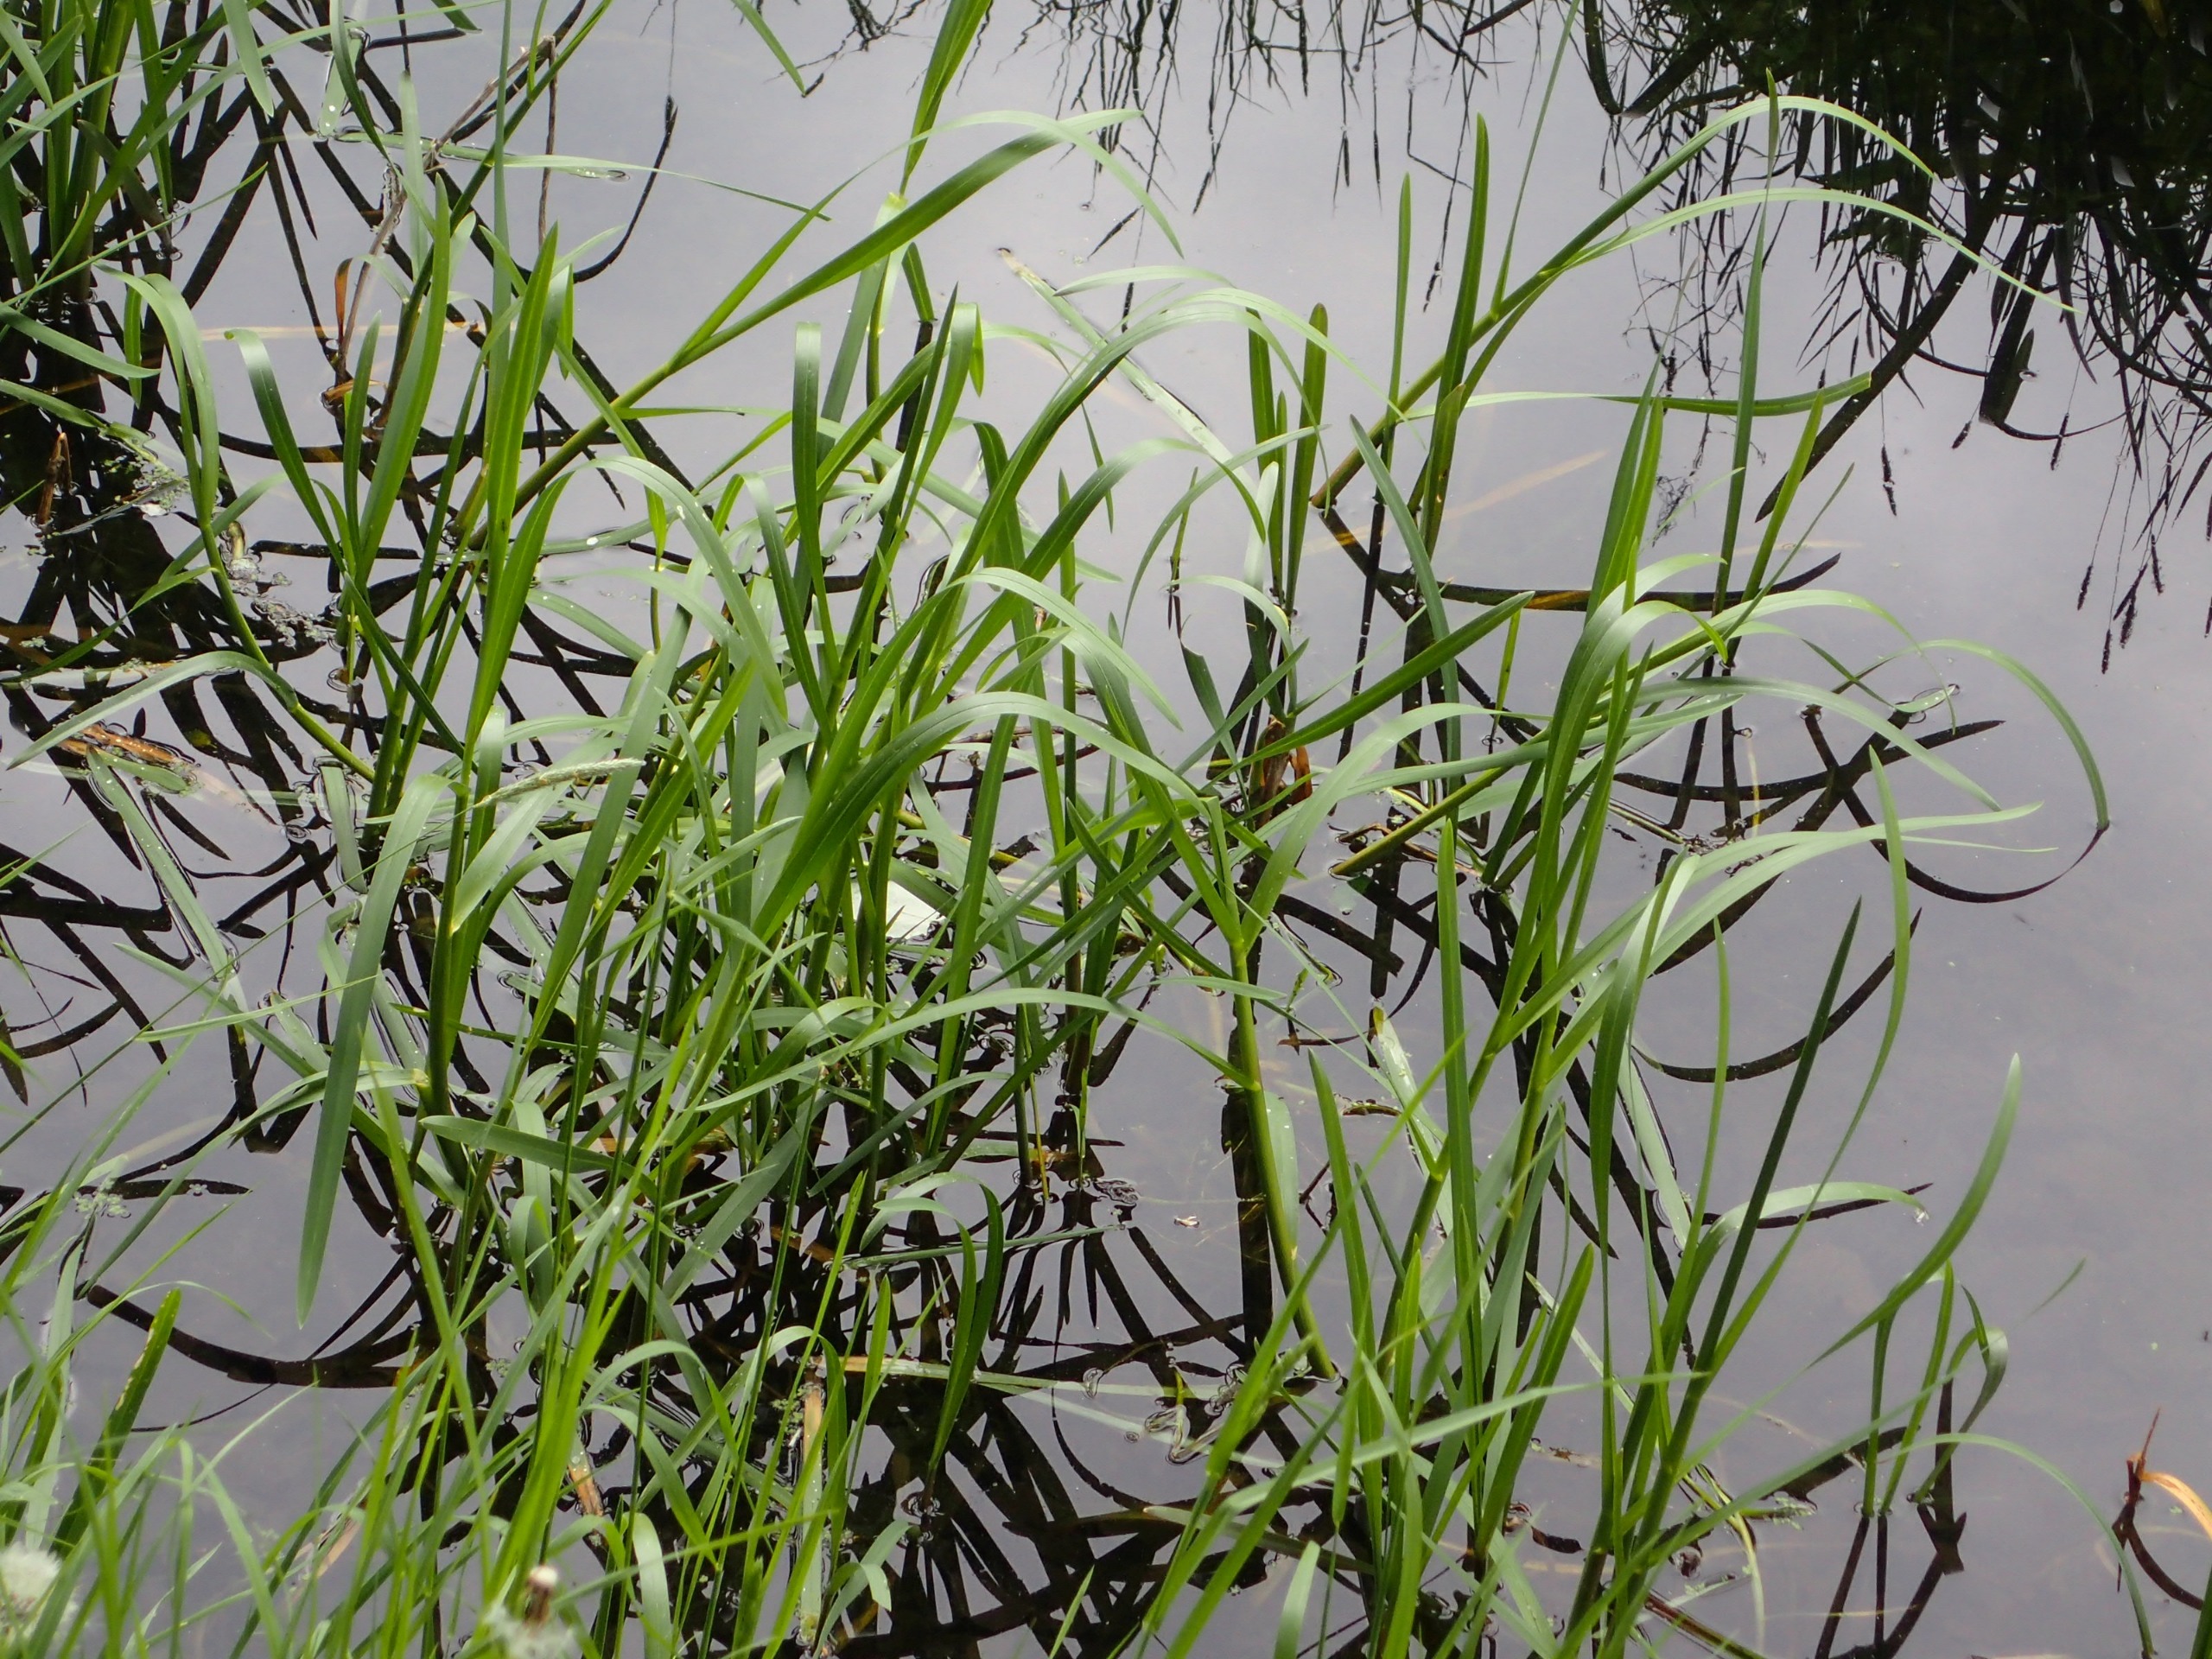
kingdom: Plantae
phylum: Tracheophyta
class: Liliopsida
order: Poales
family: Poaceae
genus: Glyceria
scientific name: Glyceria maxima
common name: Høj sødgræs
